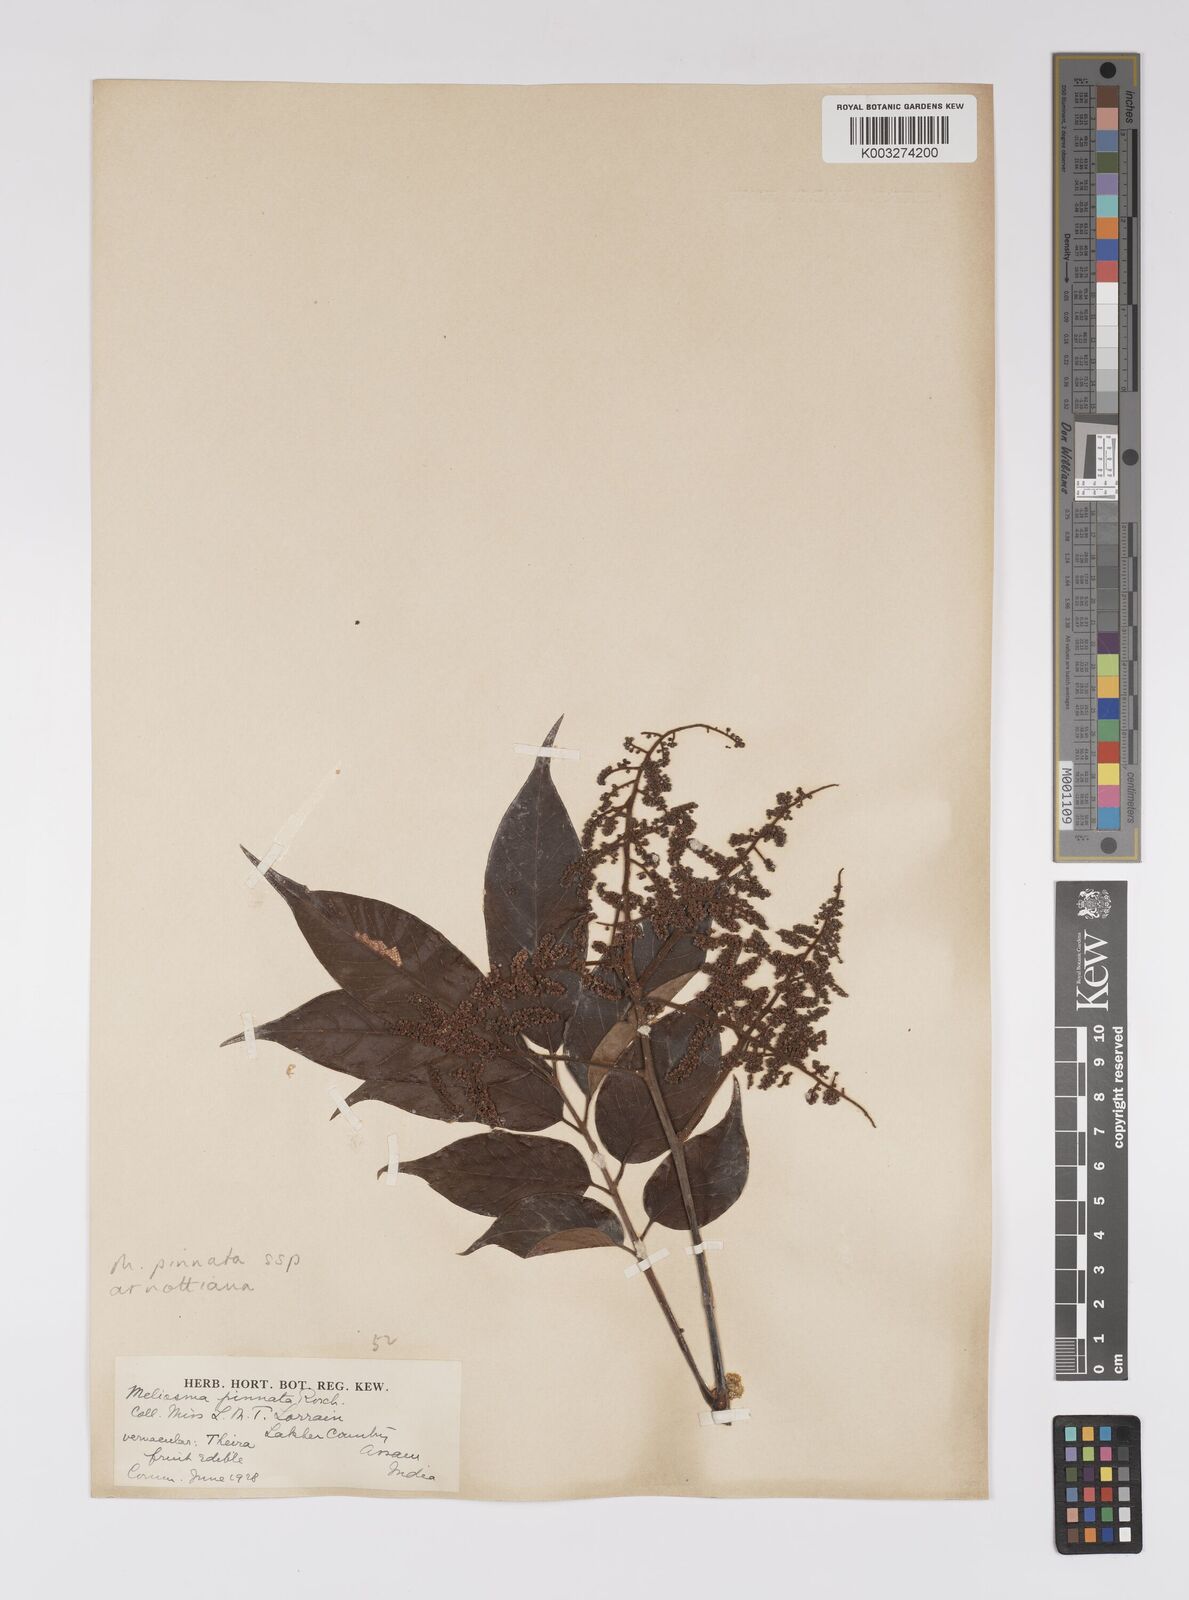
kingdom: Plantae
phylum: Tracheophyta
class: Magnoliopsida
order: Proteales
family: Sabiaceae
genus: Meliosma
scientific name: Meliosma rhoifolia
